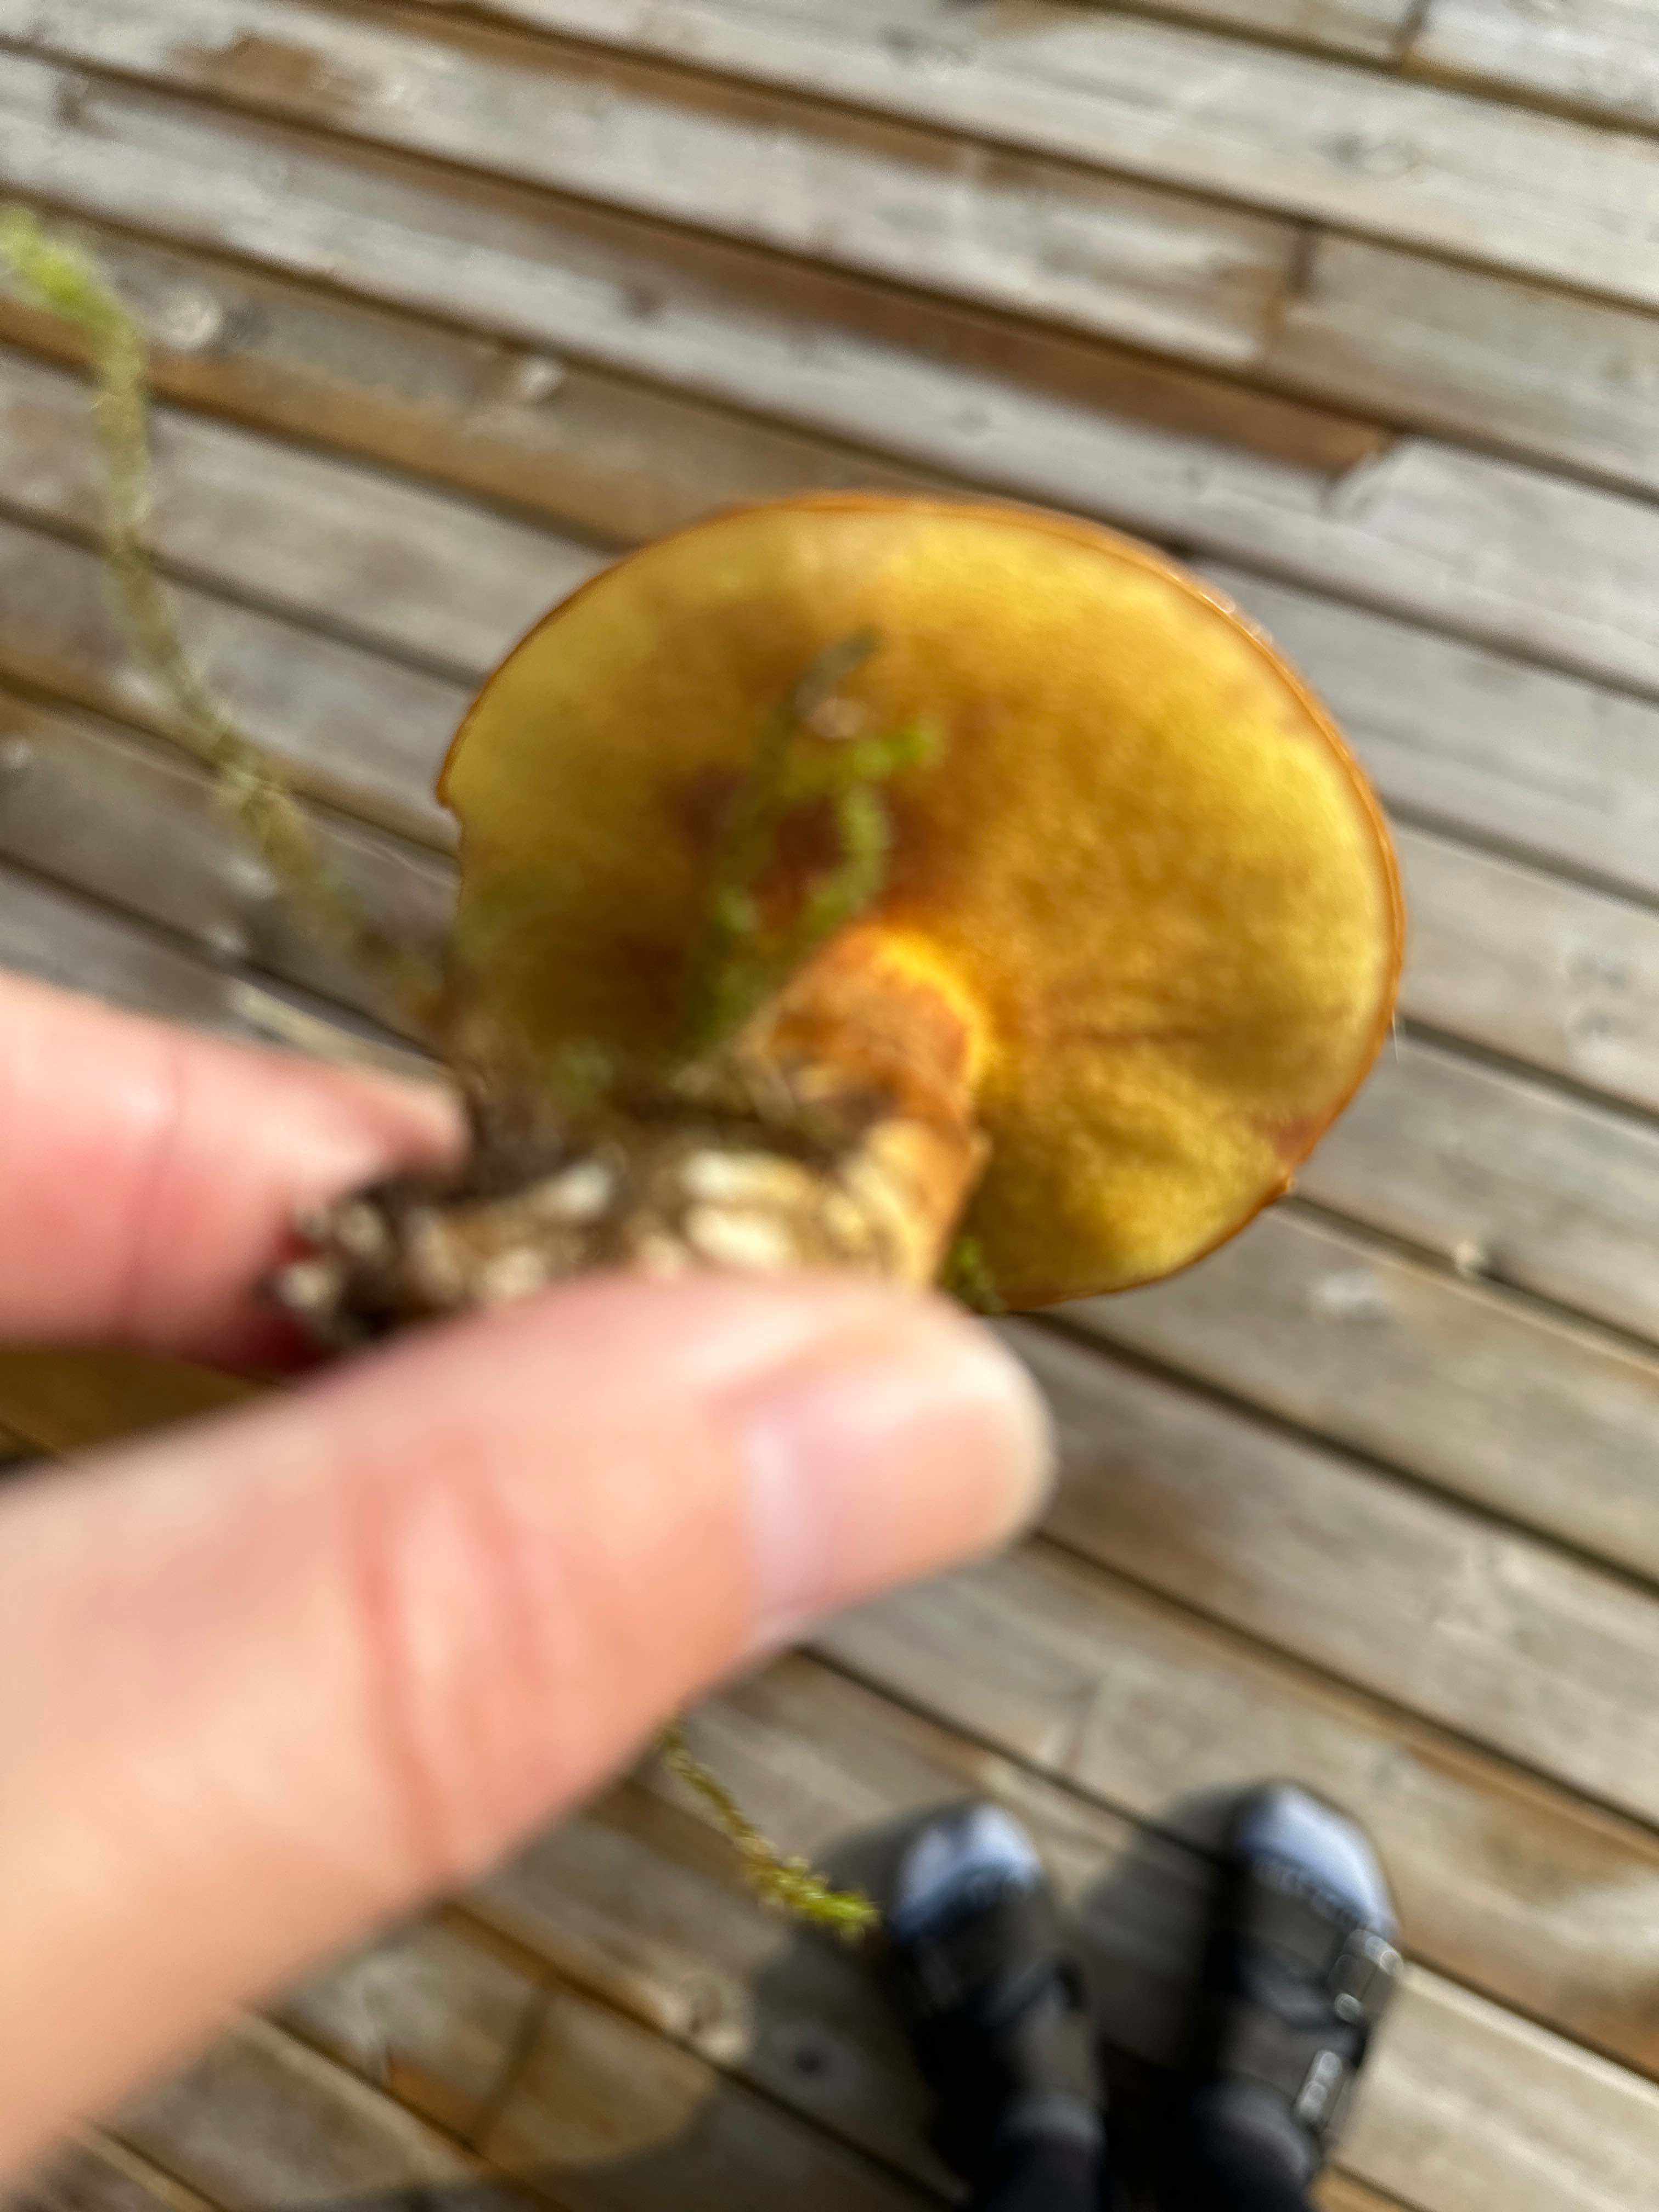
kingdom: Fungi
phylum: Basidiomycota
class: Agaricomycetes
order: Boletales
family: Suillaceae
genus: Suillus
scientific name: Suillus grevillei
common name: lærke-slimrørhat
